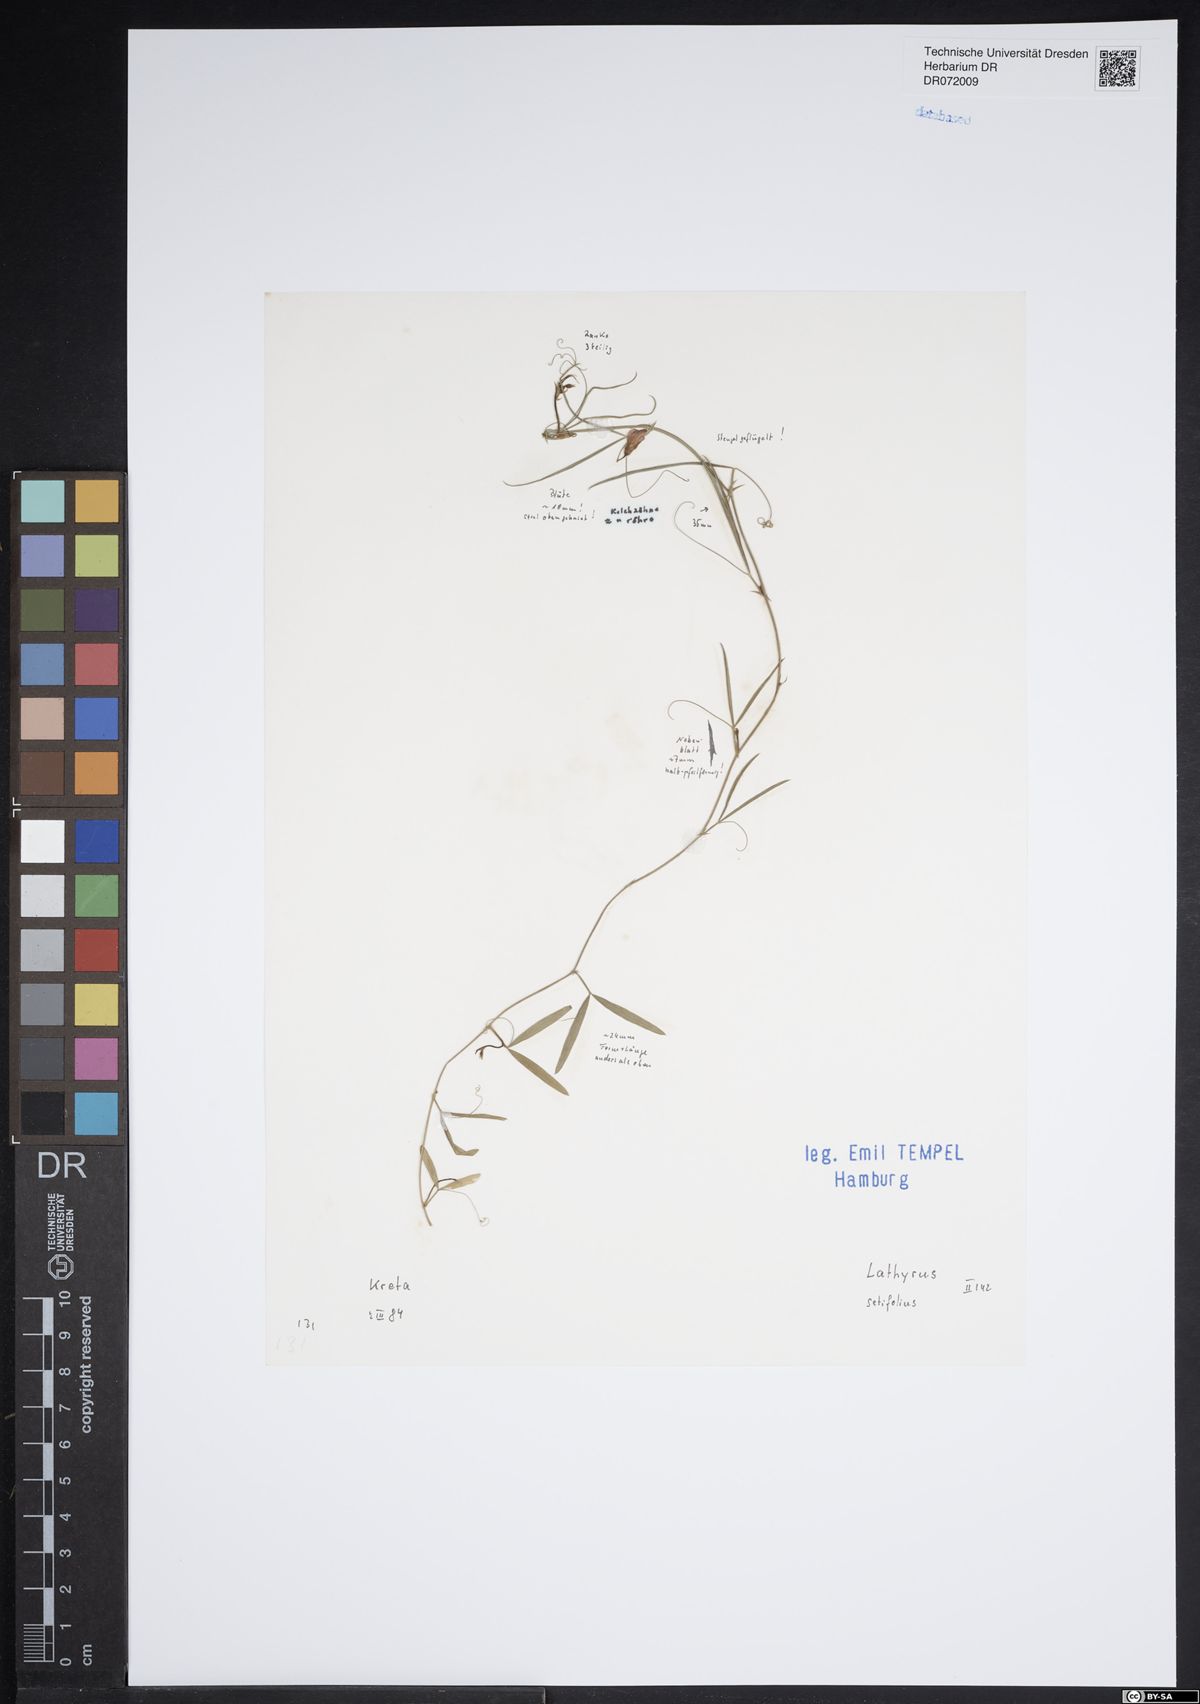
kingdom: Plantae
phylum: Tracheophyta
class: Magnoliopsida
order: Fabales
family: Fabaceae
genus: Lathyrus
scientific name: Lathyrus setifolius
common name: Brown vetchling
